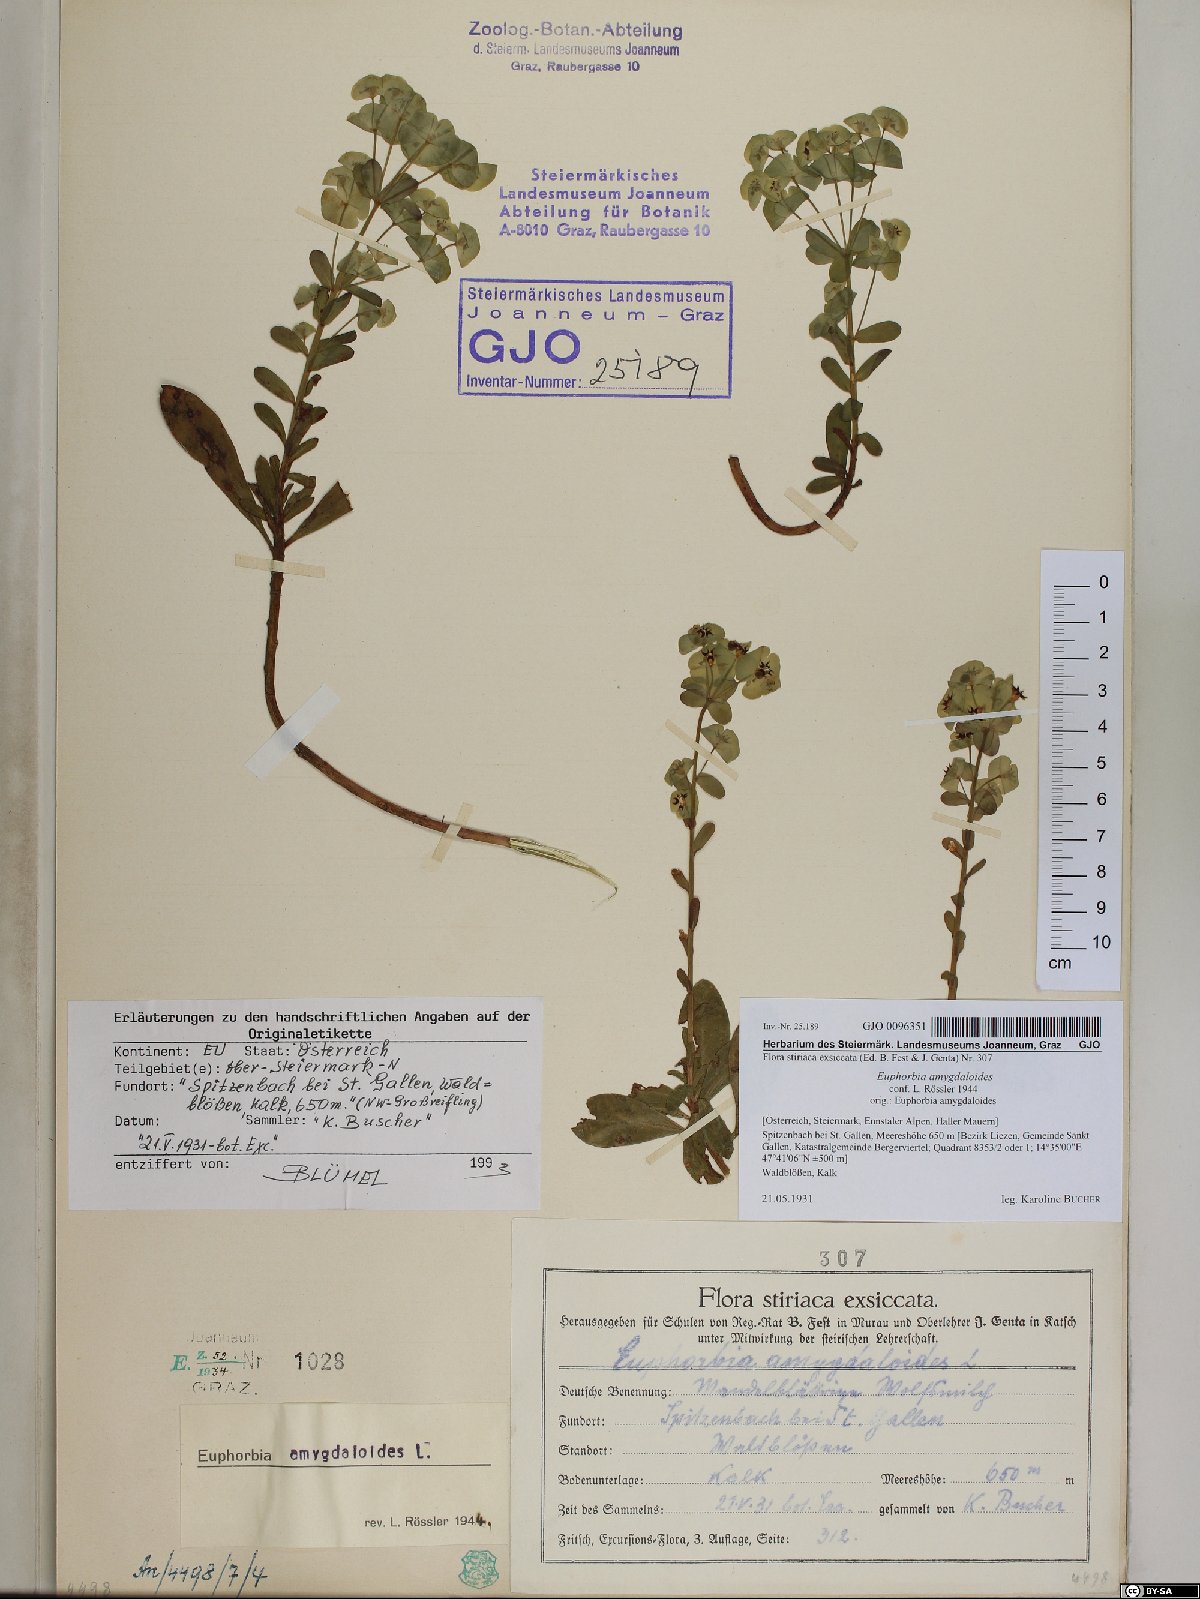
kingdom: Plantae
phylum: Tracheophyta
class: Magnoliopsida
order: Malpighiales
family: Euphorbiaceae
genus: Euphorbia
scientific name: Euphorbia amygdaloides
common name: Wood spurge
